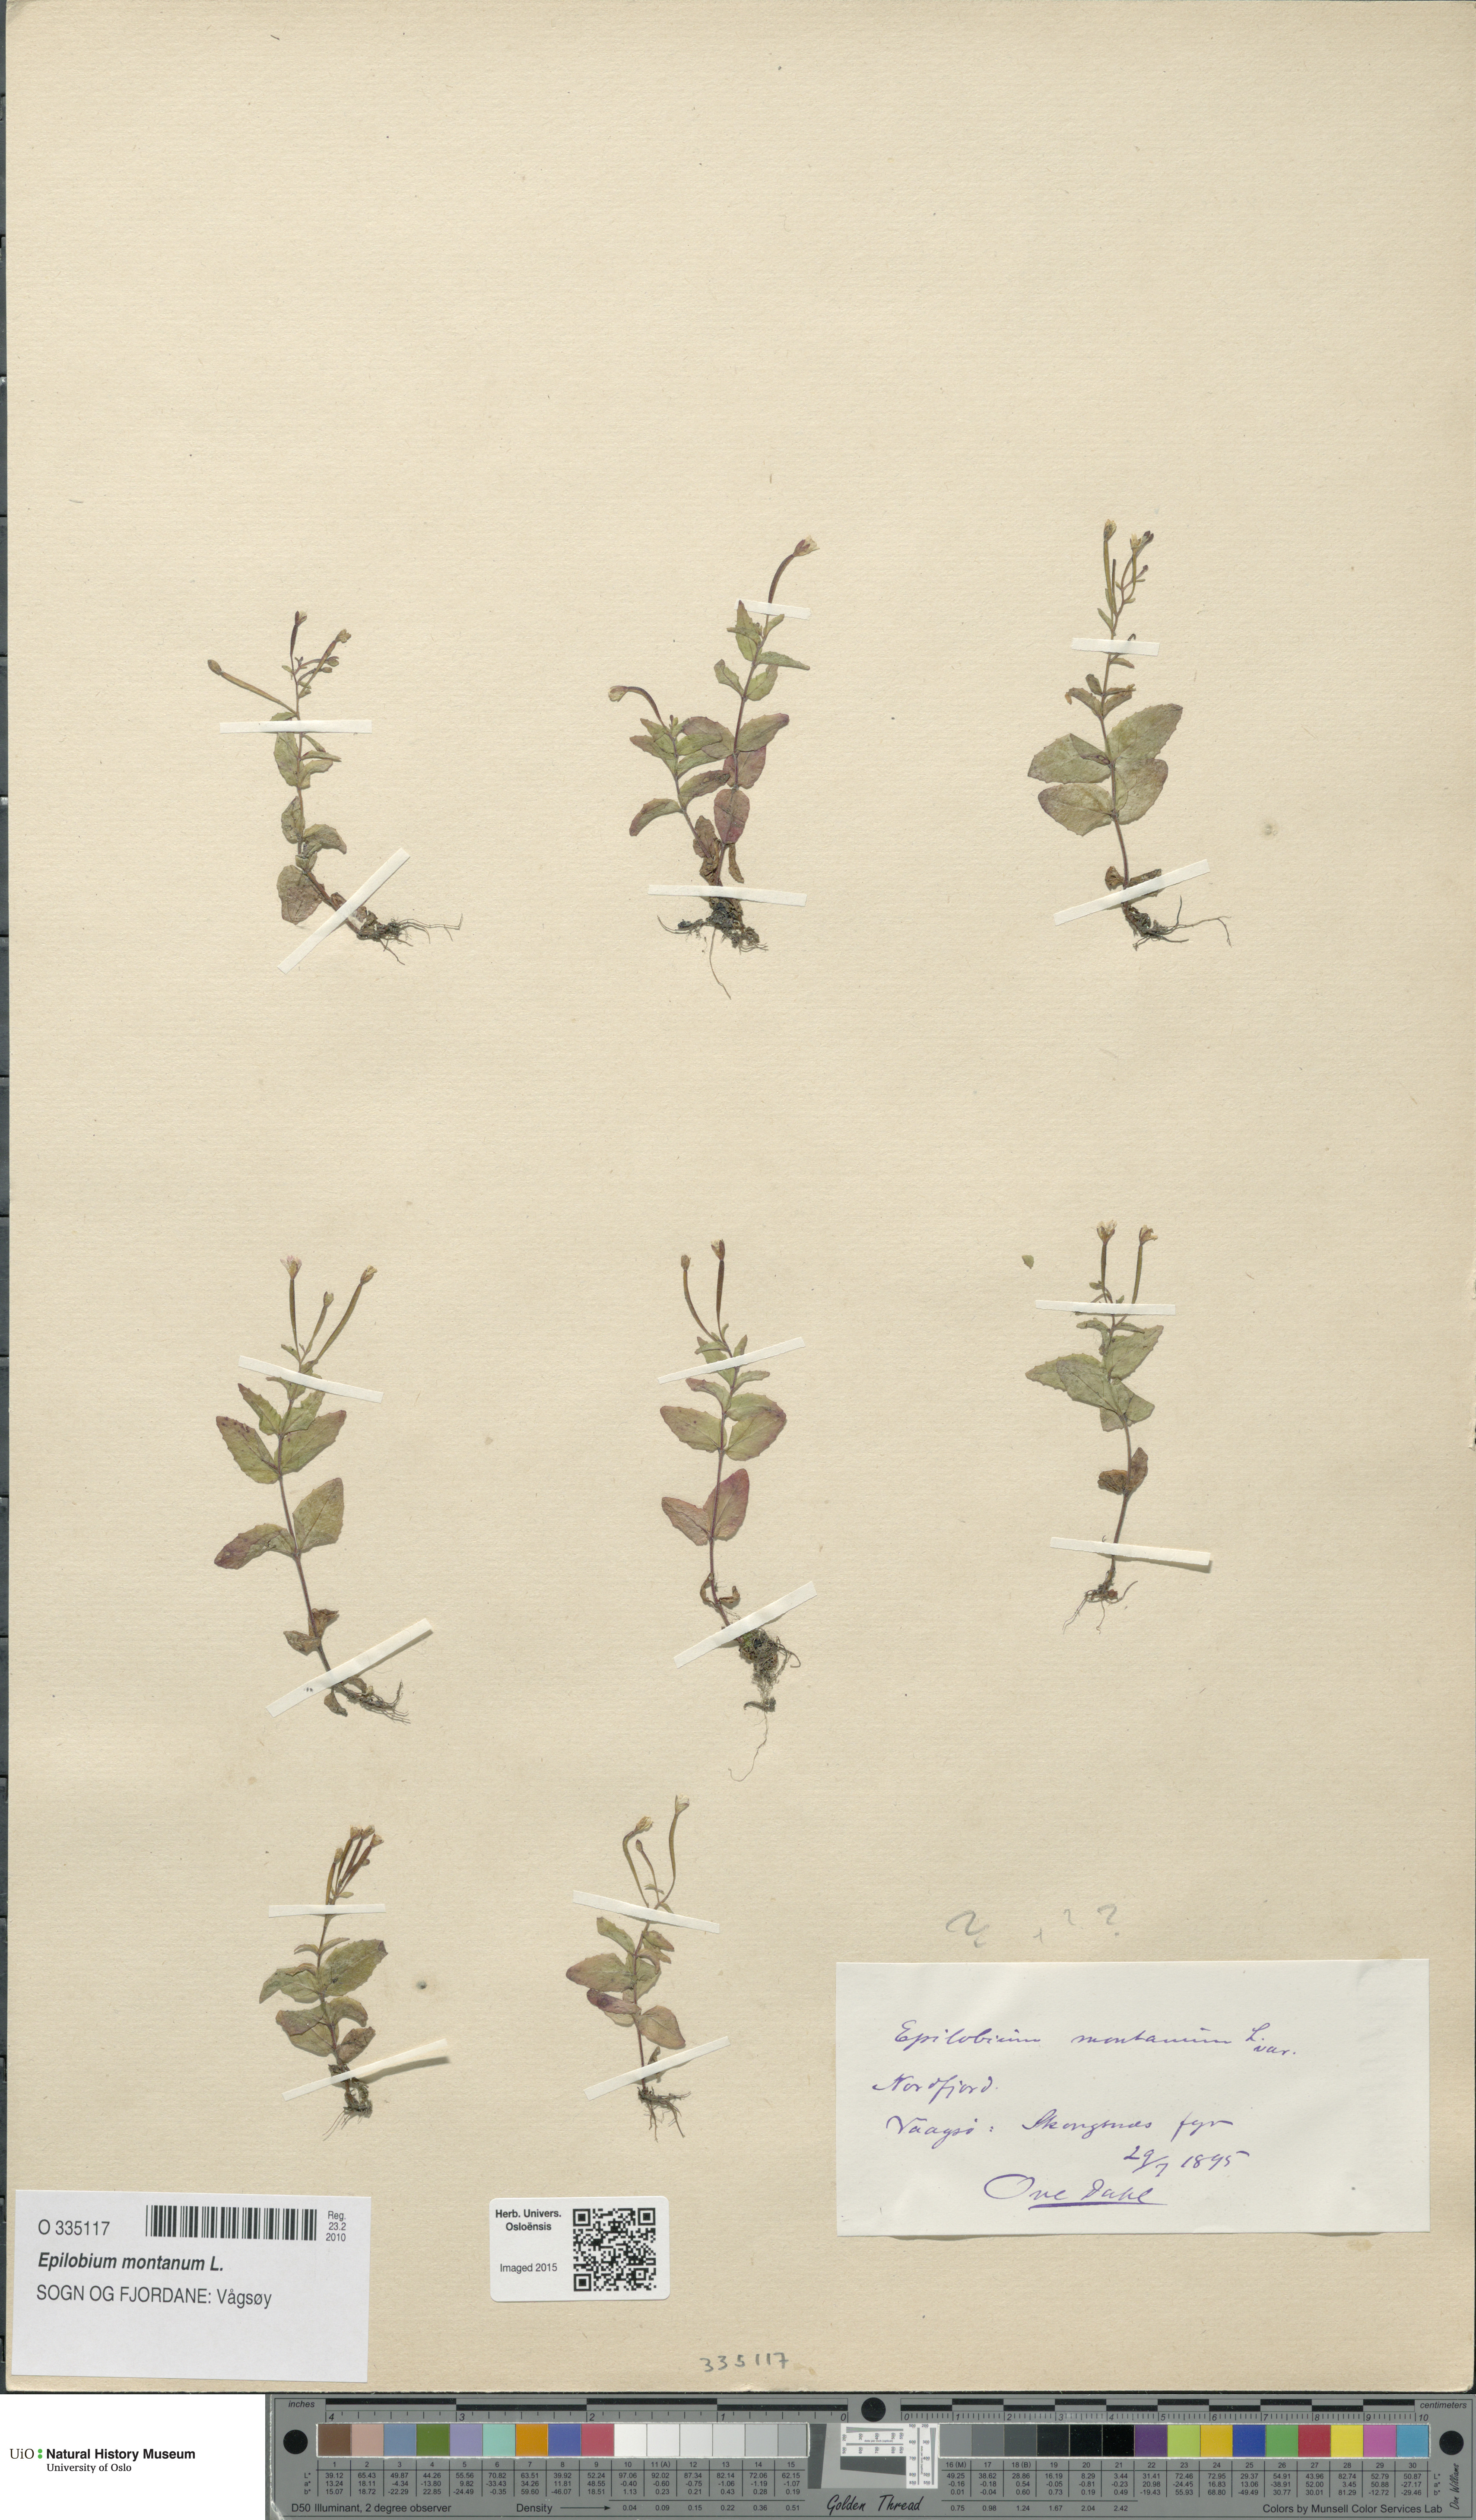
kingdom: Plantae
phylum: Tracheophyta
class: Magnoliopsida
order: Myrtales
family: Onagraceae
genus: Epilobium
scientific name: Epilobium montanum
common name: Broad-leaved willowherb
